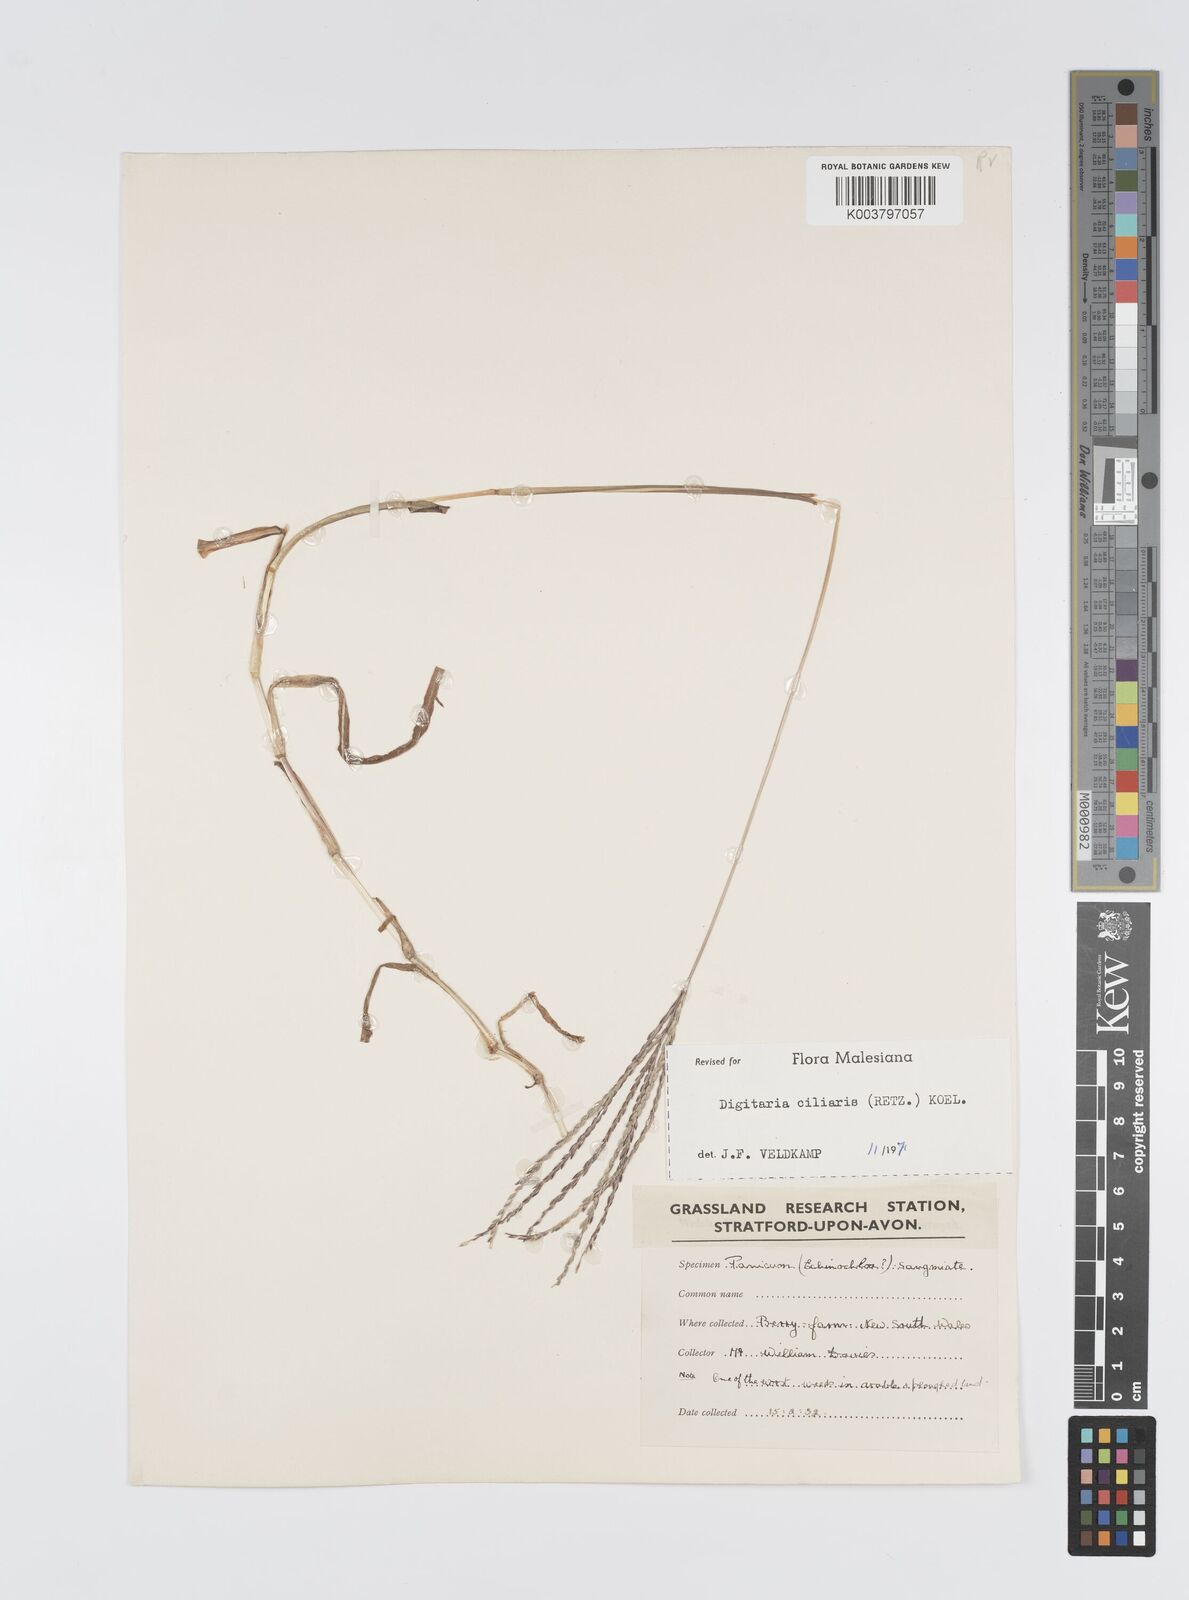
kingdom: Plantae
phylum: Tracheophyta
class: Liliopsida
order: Poales
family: Poaceae
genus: Digitaria
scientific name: Digitaria ciliaris
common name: Tropical finger-grass
